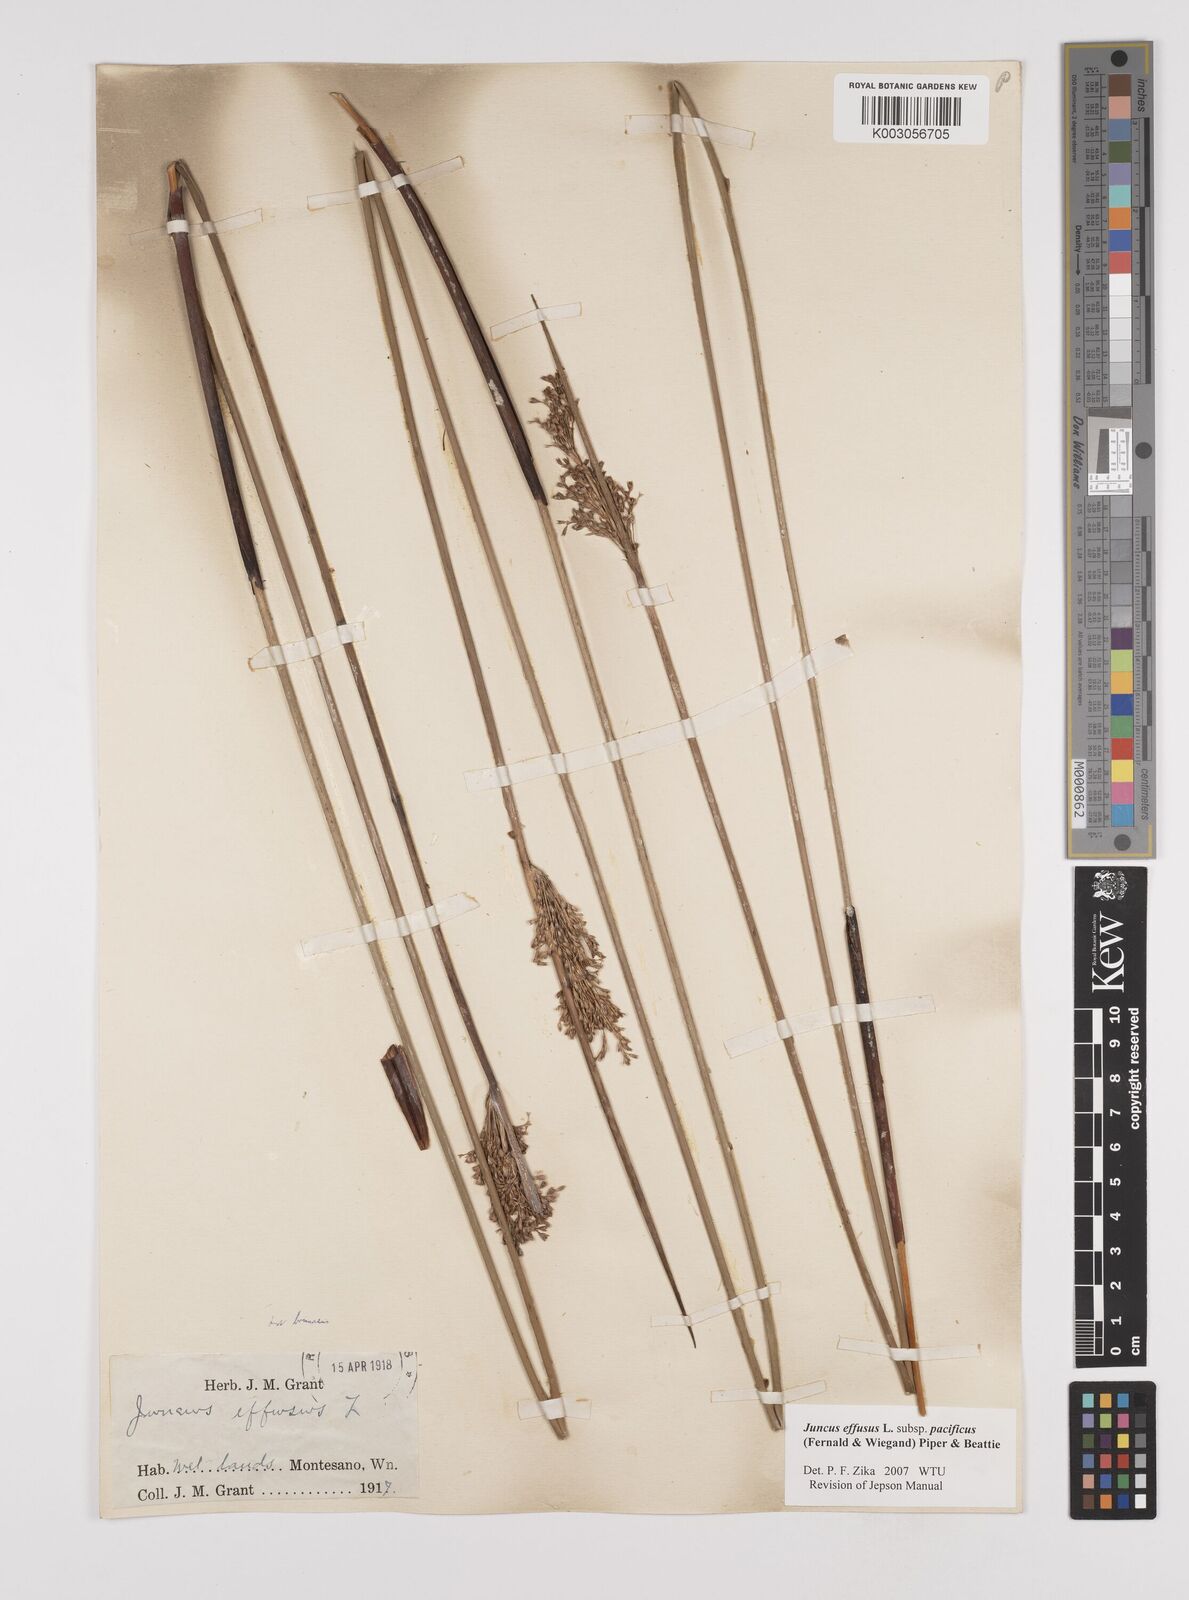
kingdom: Plantae
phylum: Tracheophyta
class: Liliopsida
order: Poales
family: Juncaceae
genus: Juncus
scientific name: Juncus effusus
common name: Soft rush
